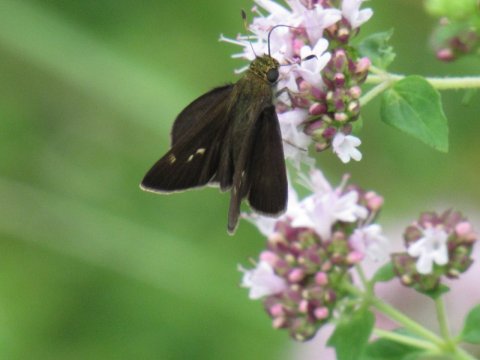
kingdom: Animalia
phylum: Arthropoda
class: Insecta
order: Lepidoptera
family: Hesperiidae
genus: Euphyes
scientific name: Euphyes vestris
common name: Dun Skipper
